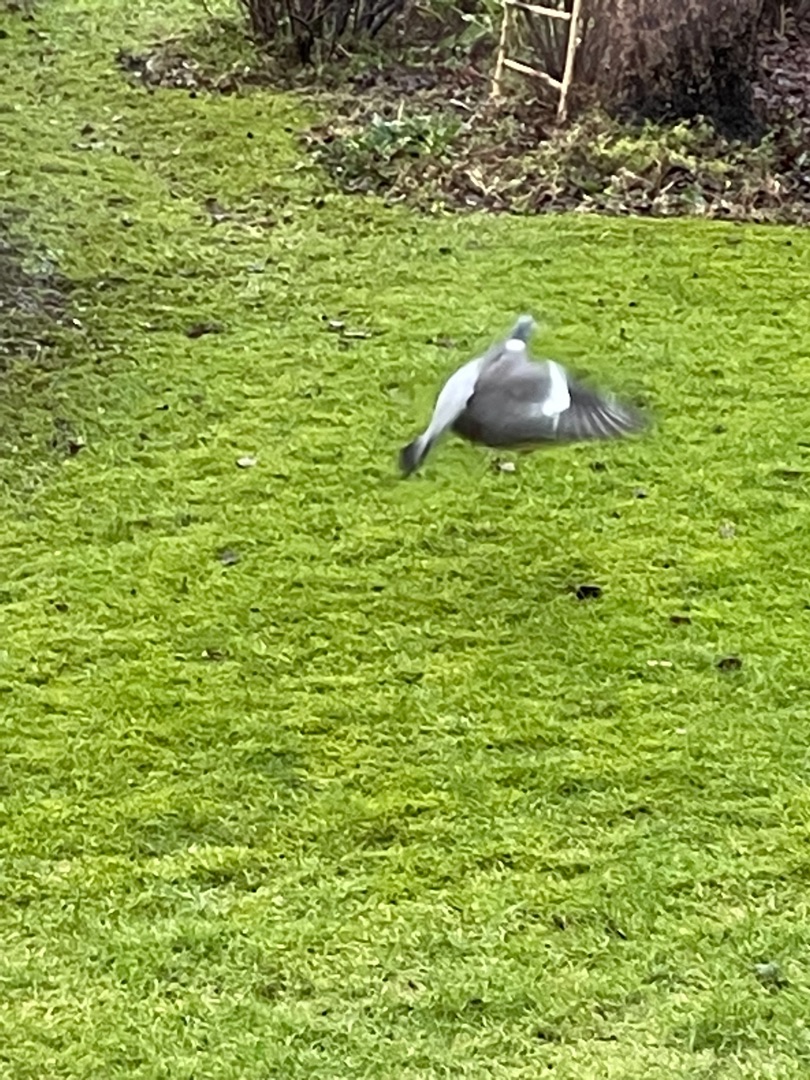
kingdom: Animalia
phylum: Chordata
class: Aves
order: Columbiformes
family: Columbidae
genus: Columba
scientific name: Columba palumbus
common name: Ringdue
